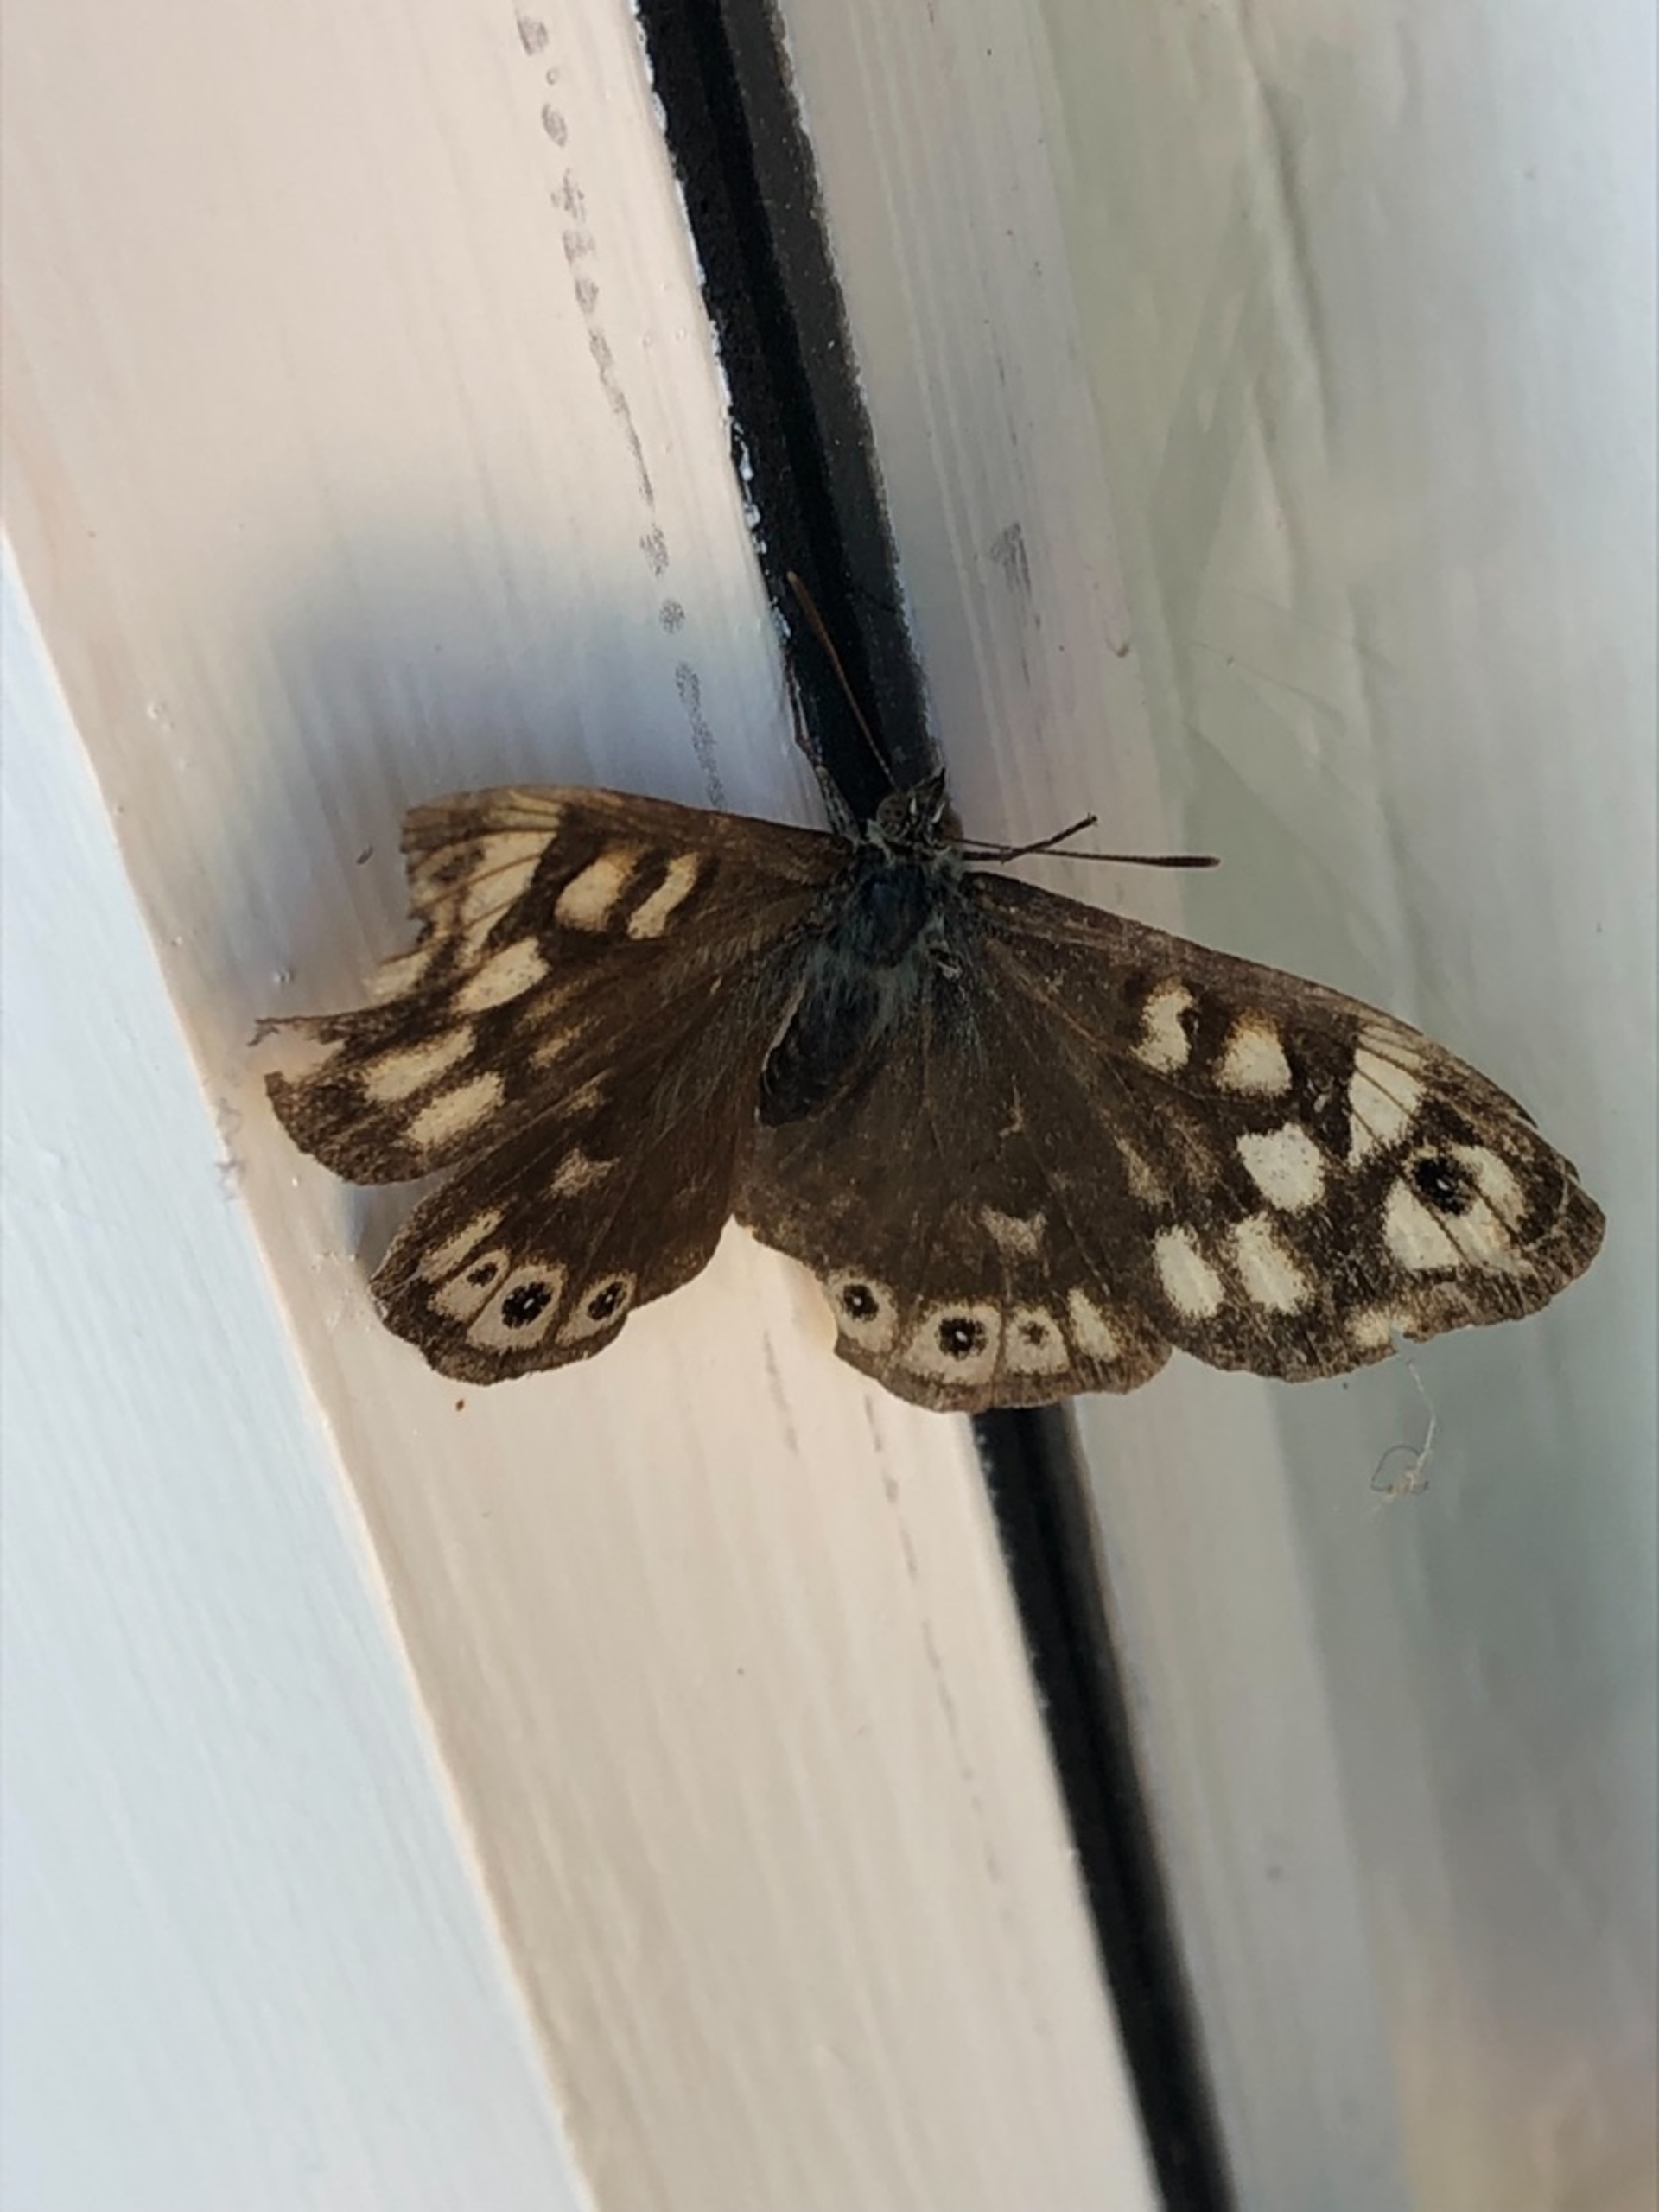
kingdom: Animalia
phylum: Arthropoda
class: Insecta
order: Lepidoptera
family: Nymphalidae
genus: Pararge
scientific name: Pararge aegeria
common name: Skovrandøje
